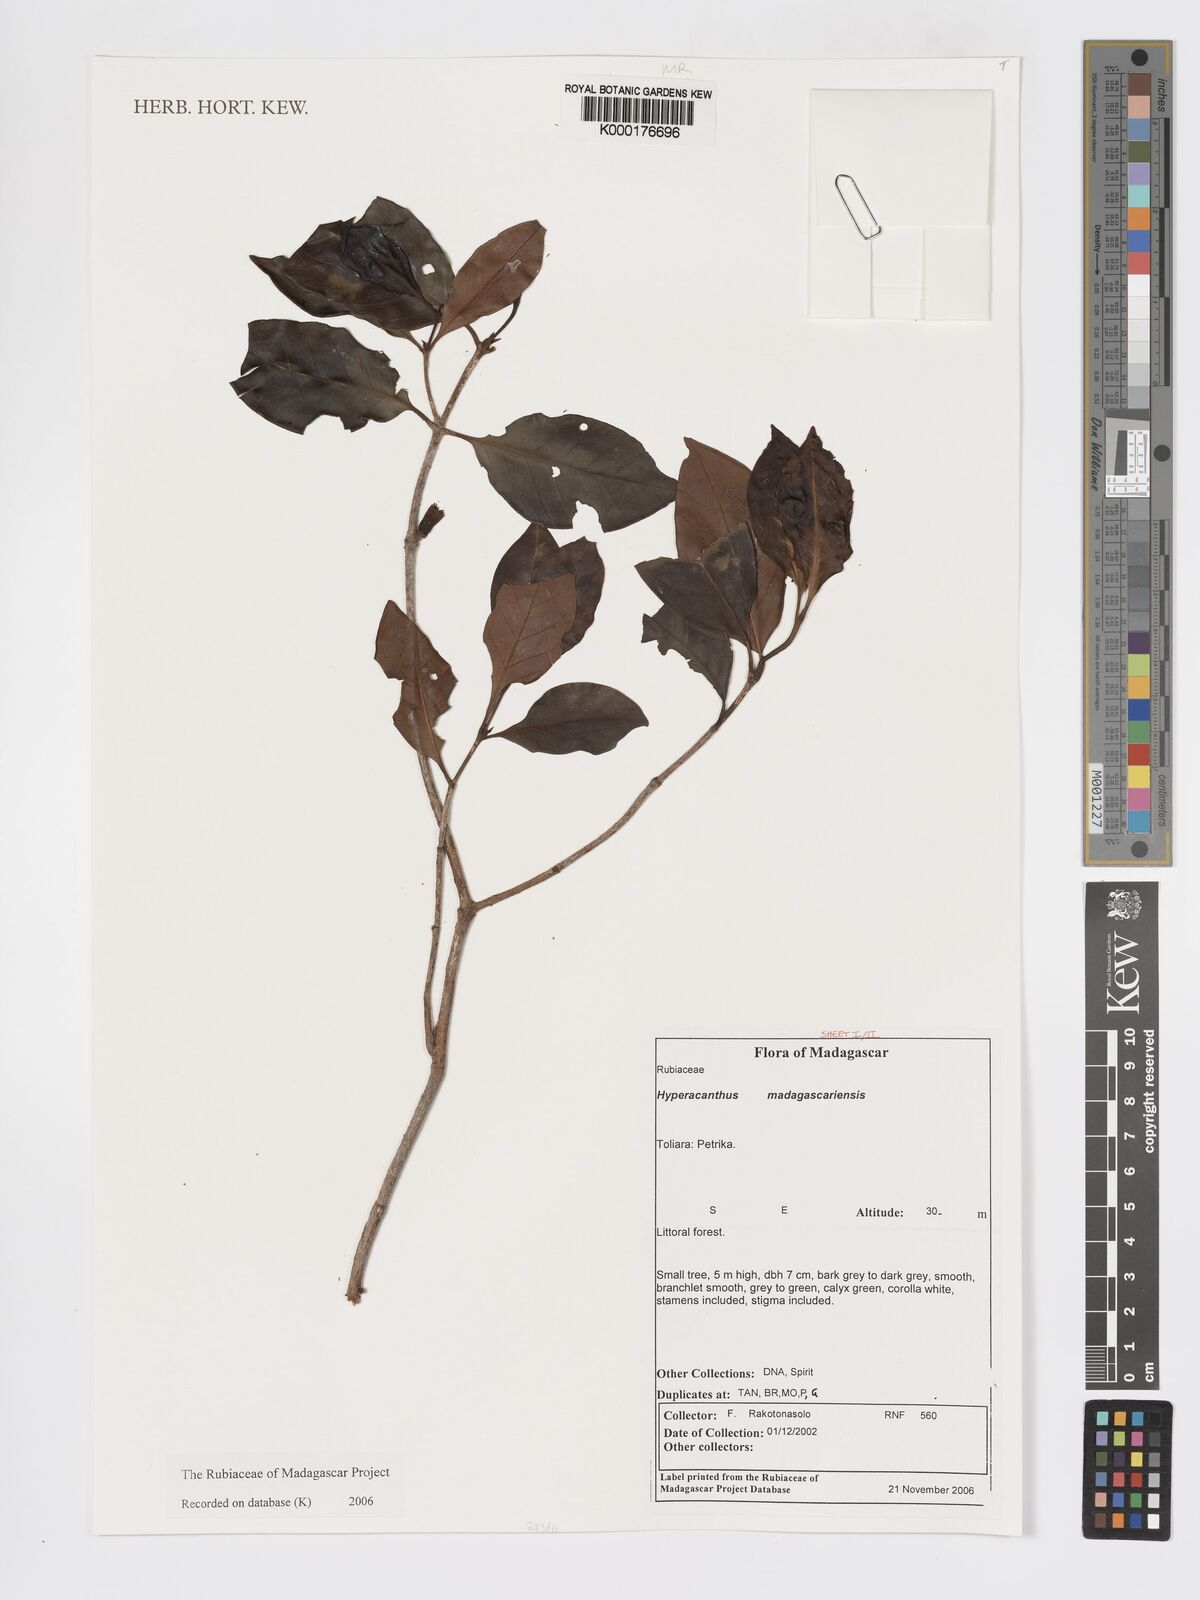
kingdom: Plantae
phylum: Tracheophyta
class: Magnoliopsida
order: Gentianales
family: Rubiaceae
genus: Hyperacanthus
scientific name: Hyperacanthus madagascariensis
